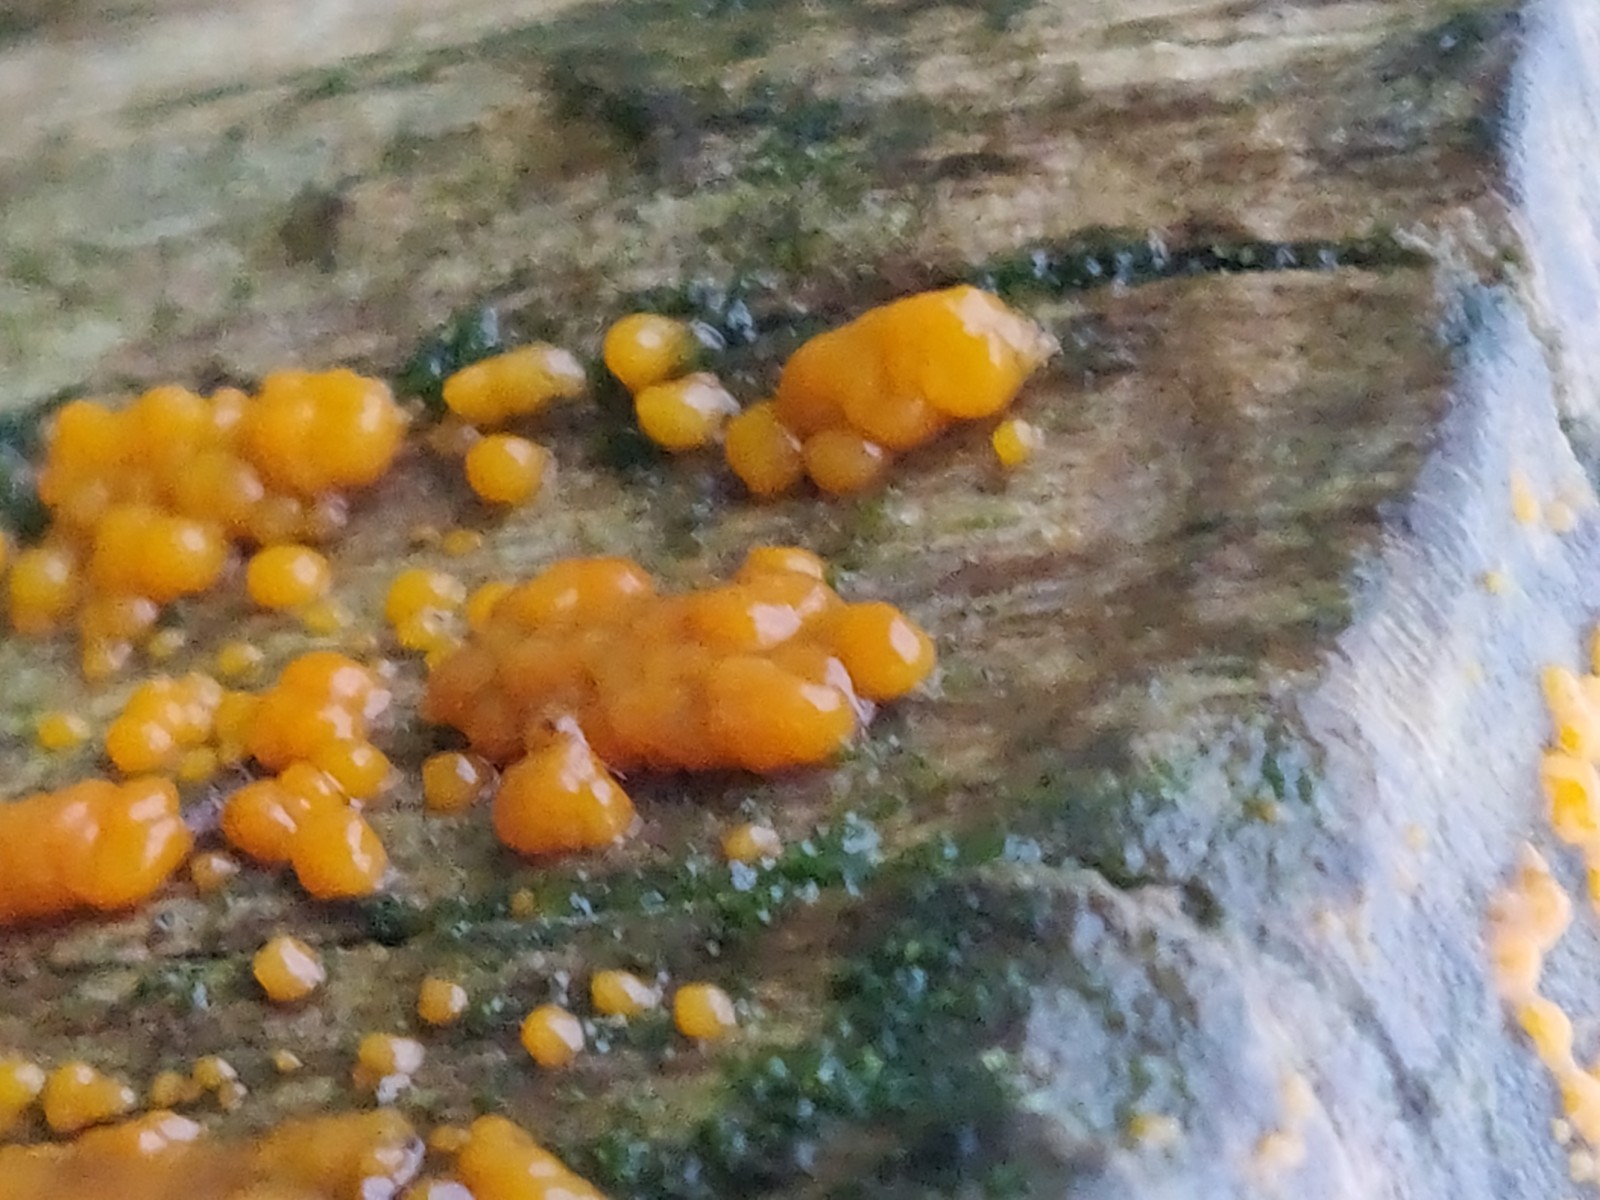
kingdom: Fungi
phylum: Basidiomycota
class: Dacrymycetes
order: Dacrymycetales
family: Dacrymycetaceae
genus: Dacrymyces
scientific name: Dacrymyces stillatus
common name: almindelig tåresvamp
